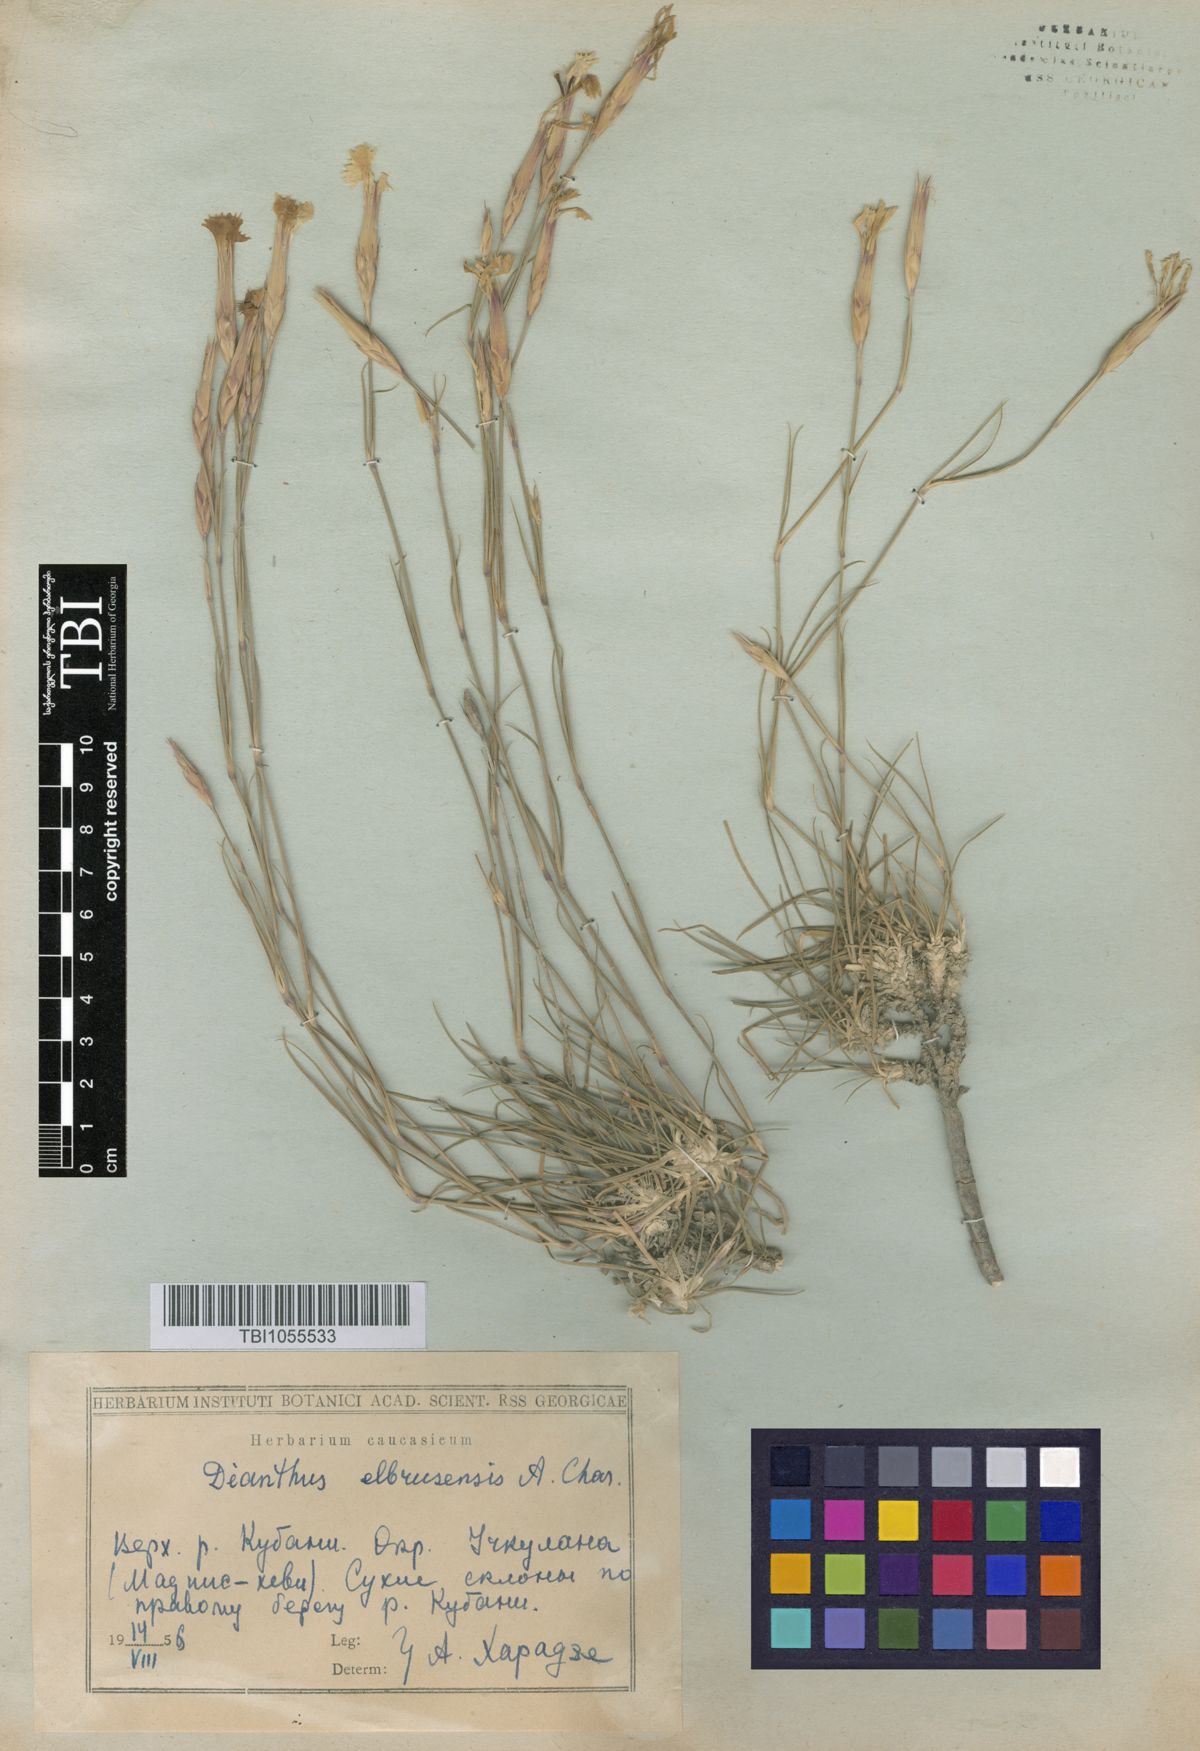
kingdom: Plantae
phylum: Tracheophyta
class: Magnoliopsida
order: Caryophyllales
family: Caryophyllaceae
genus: Dianthus
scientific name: Dianthus
